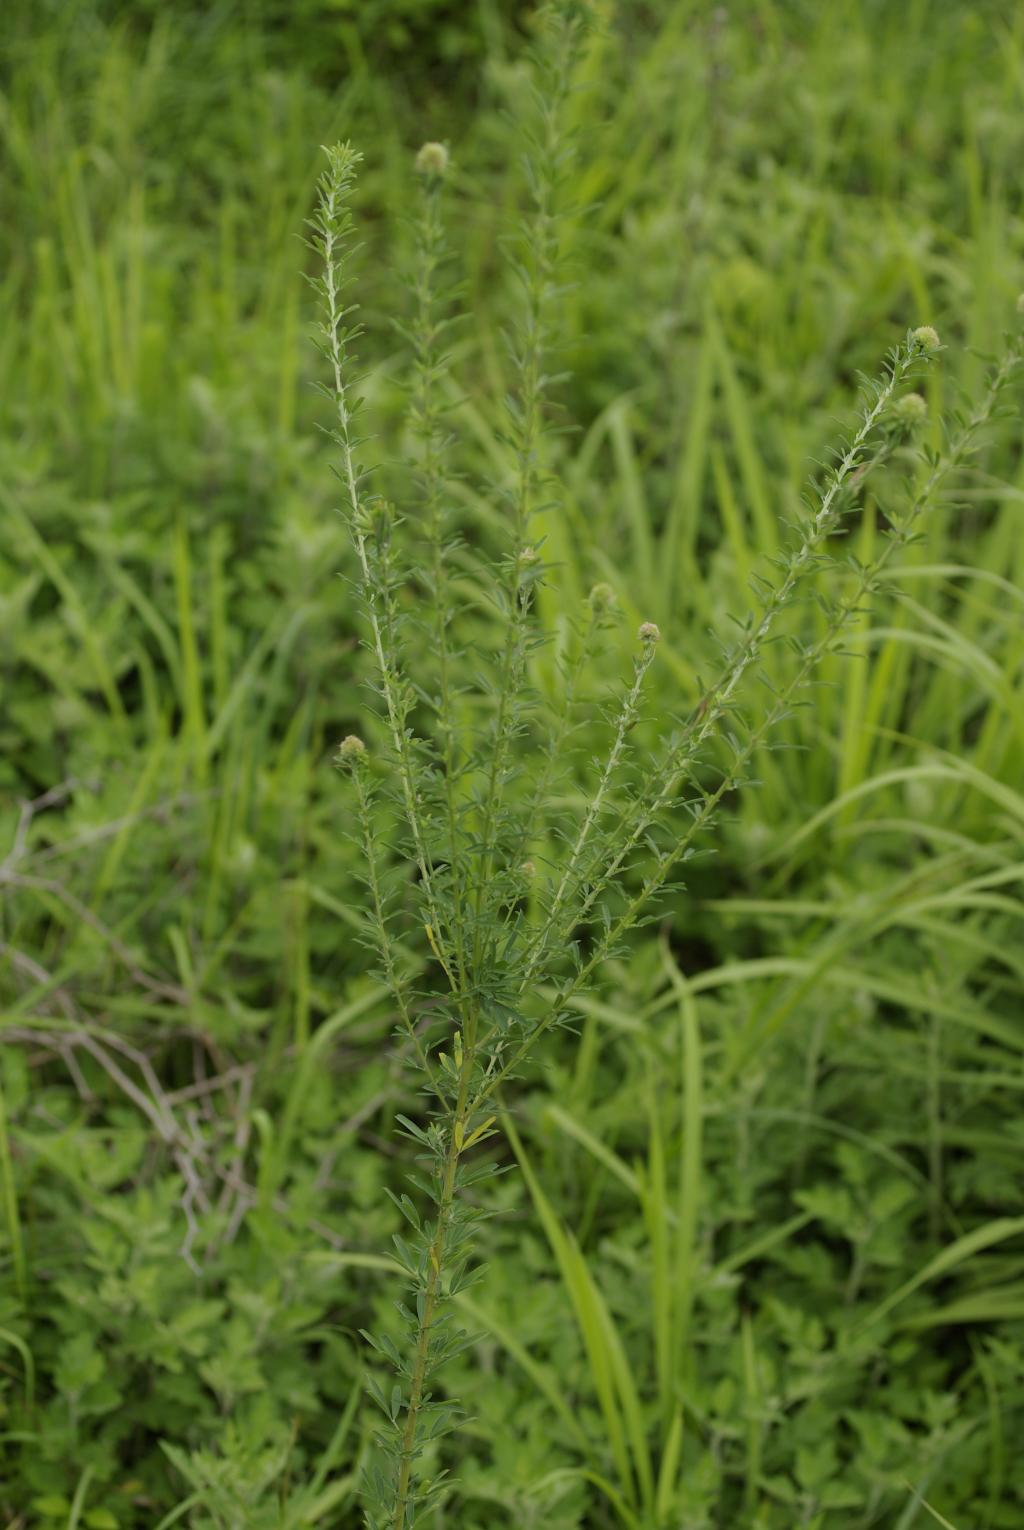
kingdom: Plantae
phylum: Tracheophyta
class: Magnoliopsida
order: Fabales
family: Fabaceae
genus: Lespedeza
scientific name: Lespedeza cuneata
